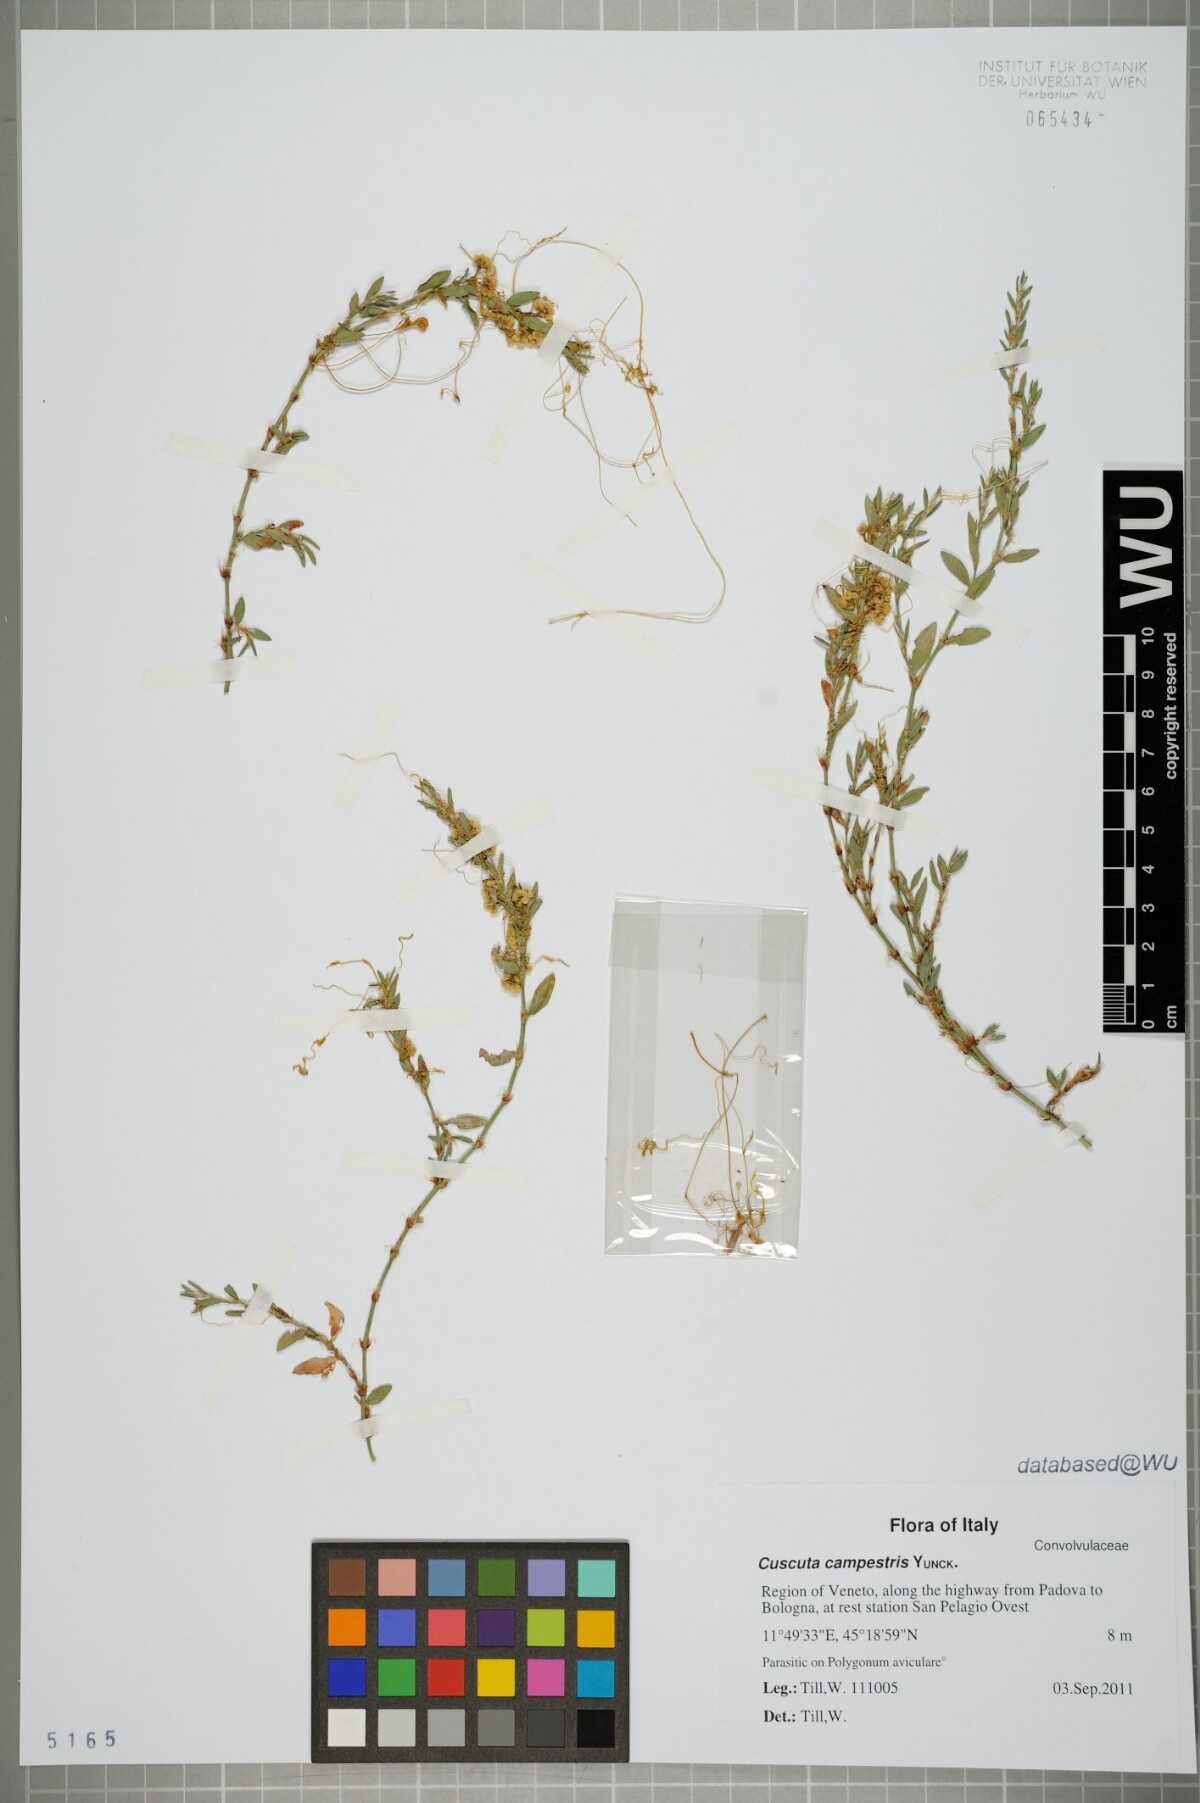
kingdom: Plantae
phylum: Tracheophyta
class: Magnoliopsida
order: Solanales
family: Convolvulaceae
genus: Cuscuta
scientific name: Cuscuta campestris
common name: Yellow dodder
